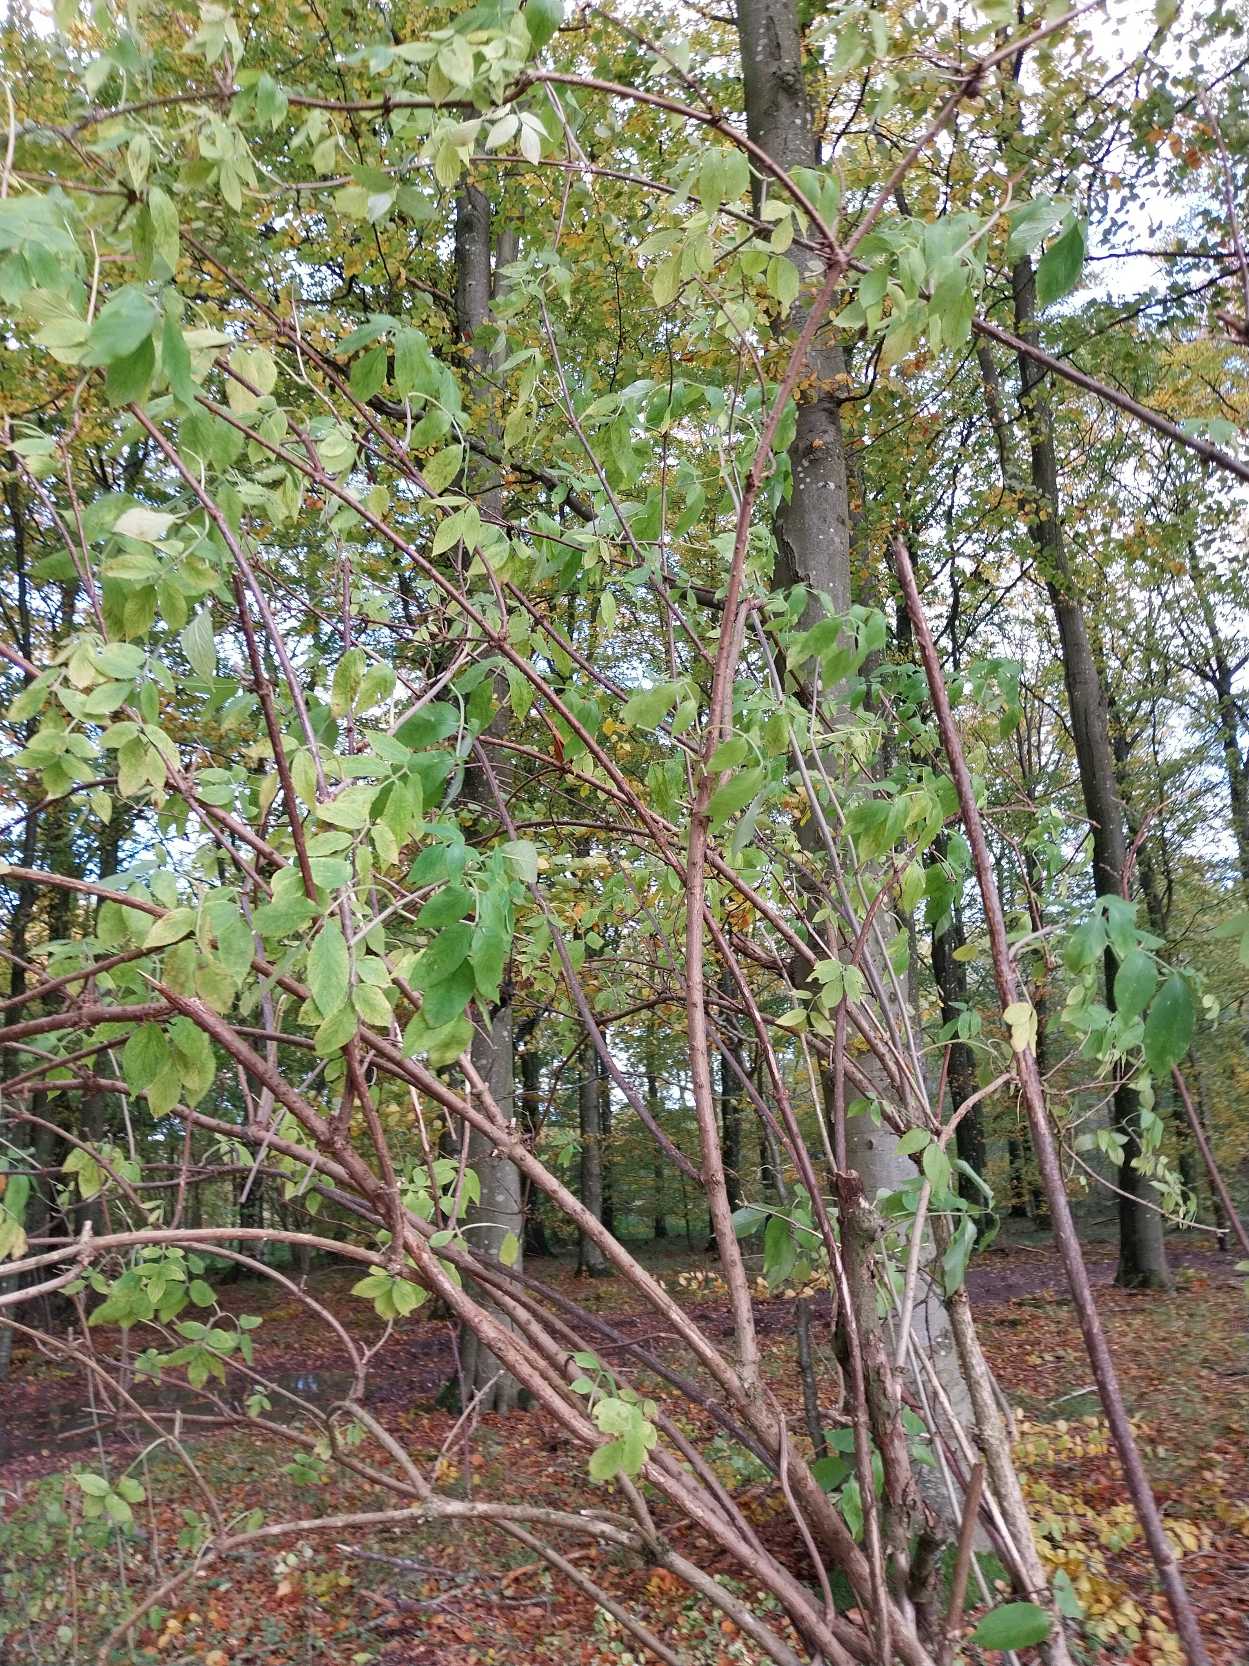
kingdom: Plantae
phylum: Tracheophyta
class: Magnoliopsida
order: Dipsacales
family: Viburnaceae
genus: Sambucus
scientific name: Sambucus nigra
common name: Almindelig hyld
